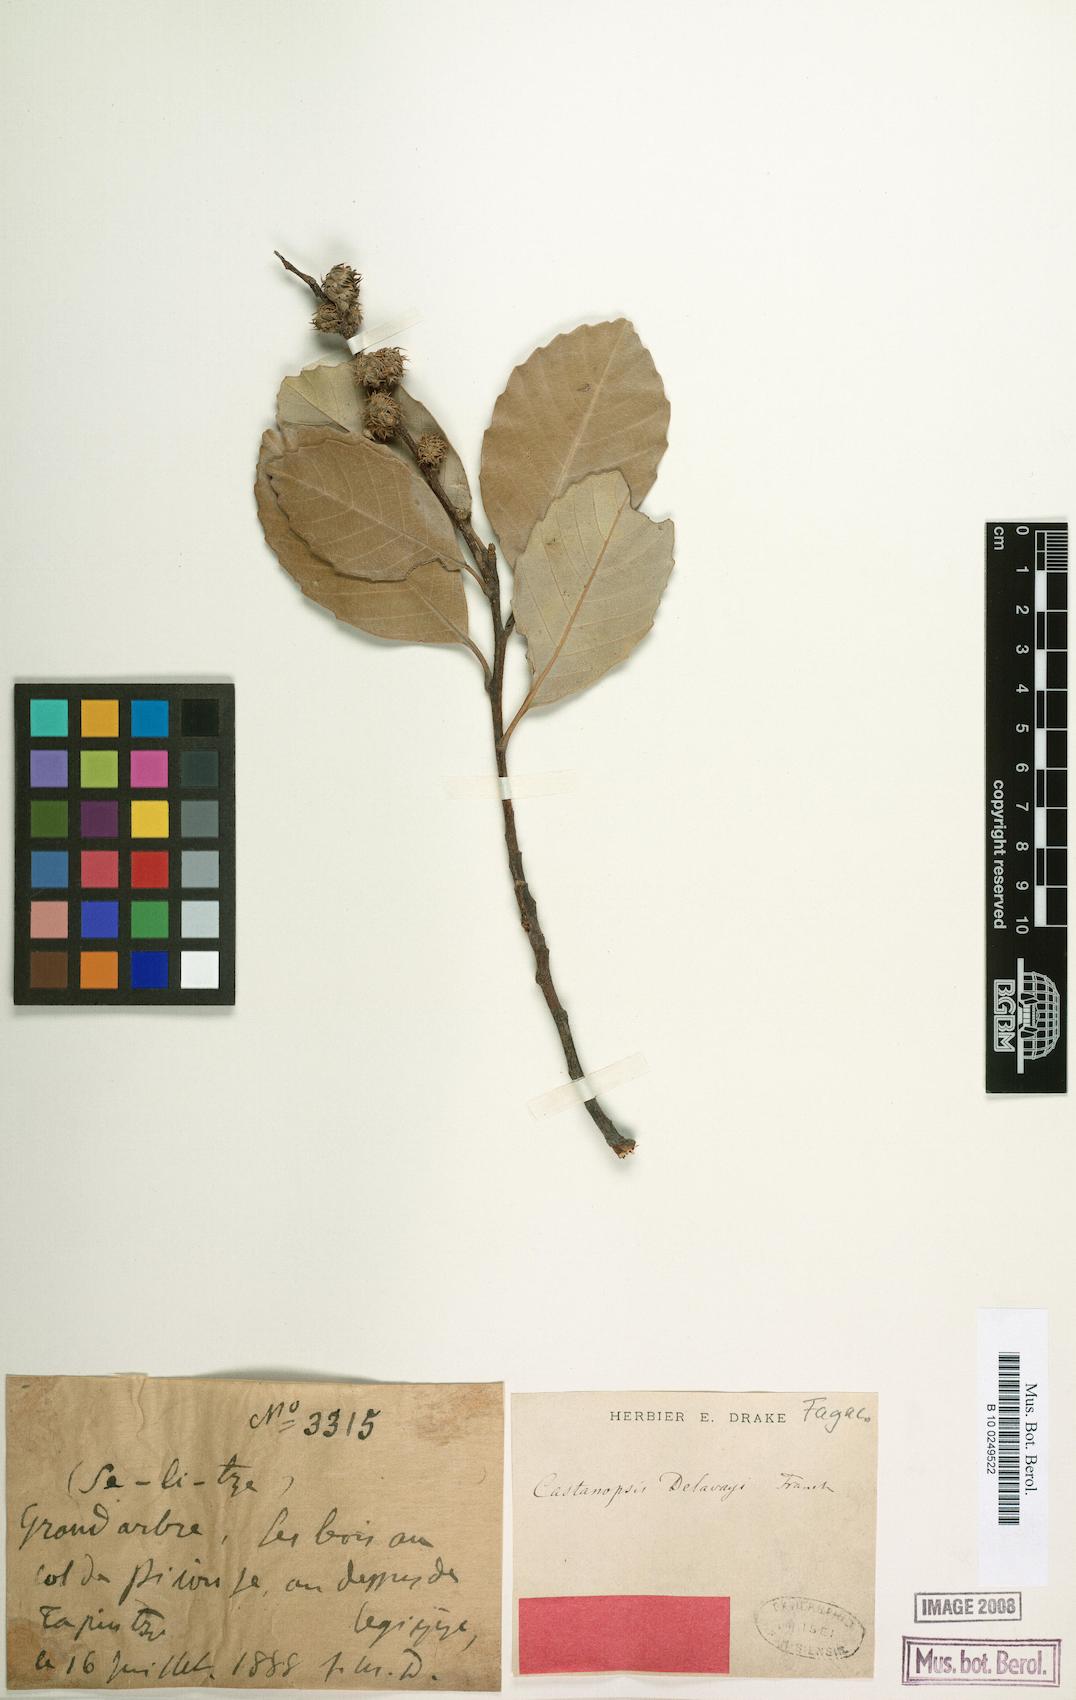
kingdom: Plantae
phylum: Tracheophyta
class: Magnoliopsida
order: Fagales
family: Fagaceae
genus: Castanopsis
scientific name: Castanopsis delavayi
